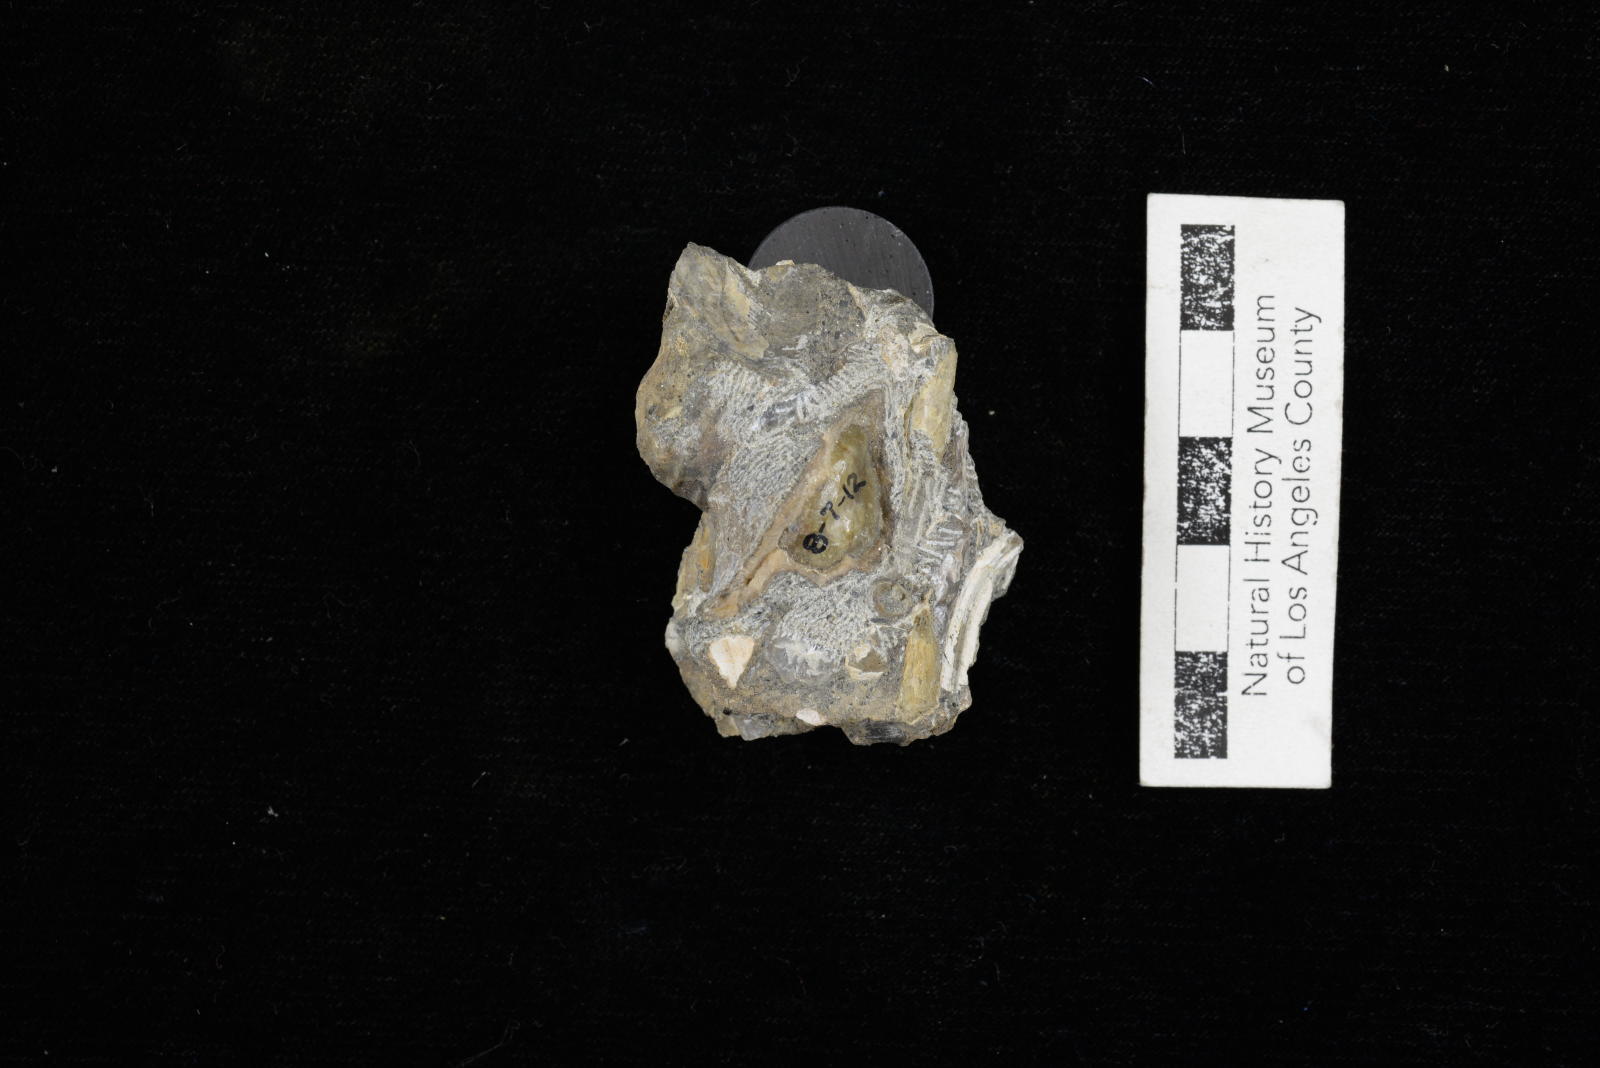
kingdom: Animalia
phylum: Mollusca
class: Gastropoda
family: Nerineidae
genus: Nerinea
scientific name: Nerinea stewarti
